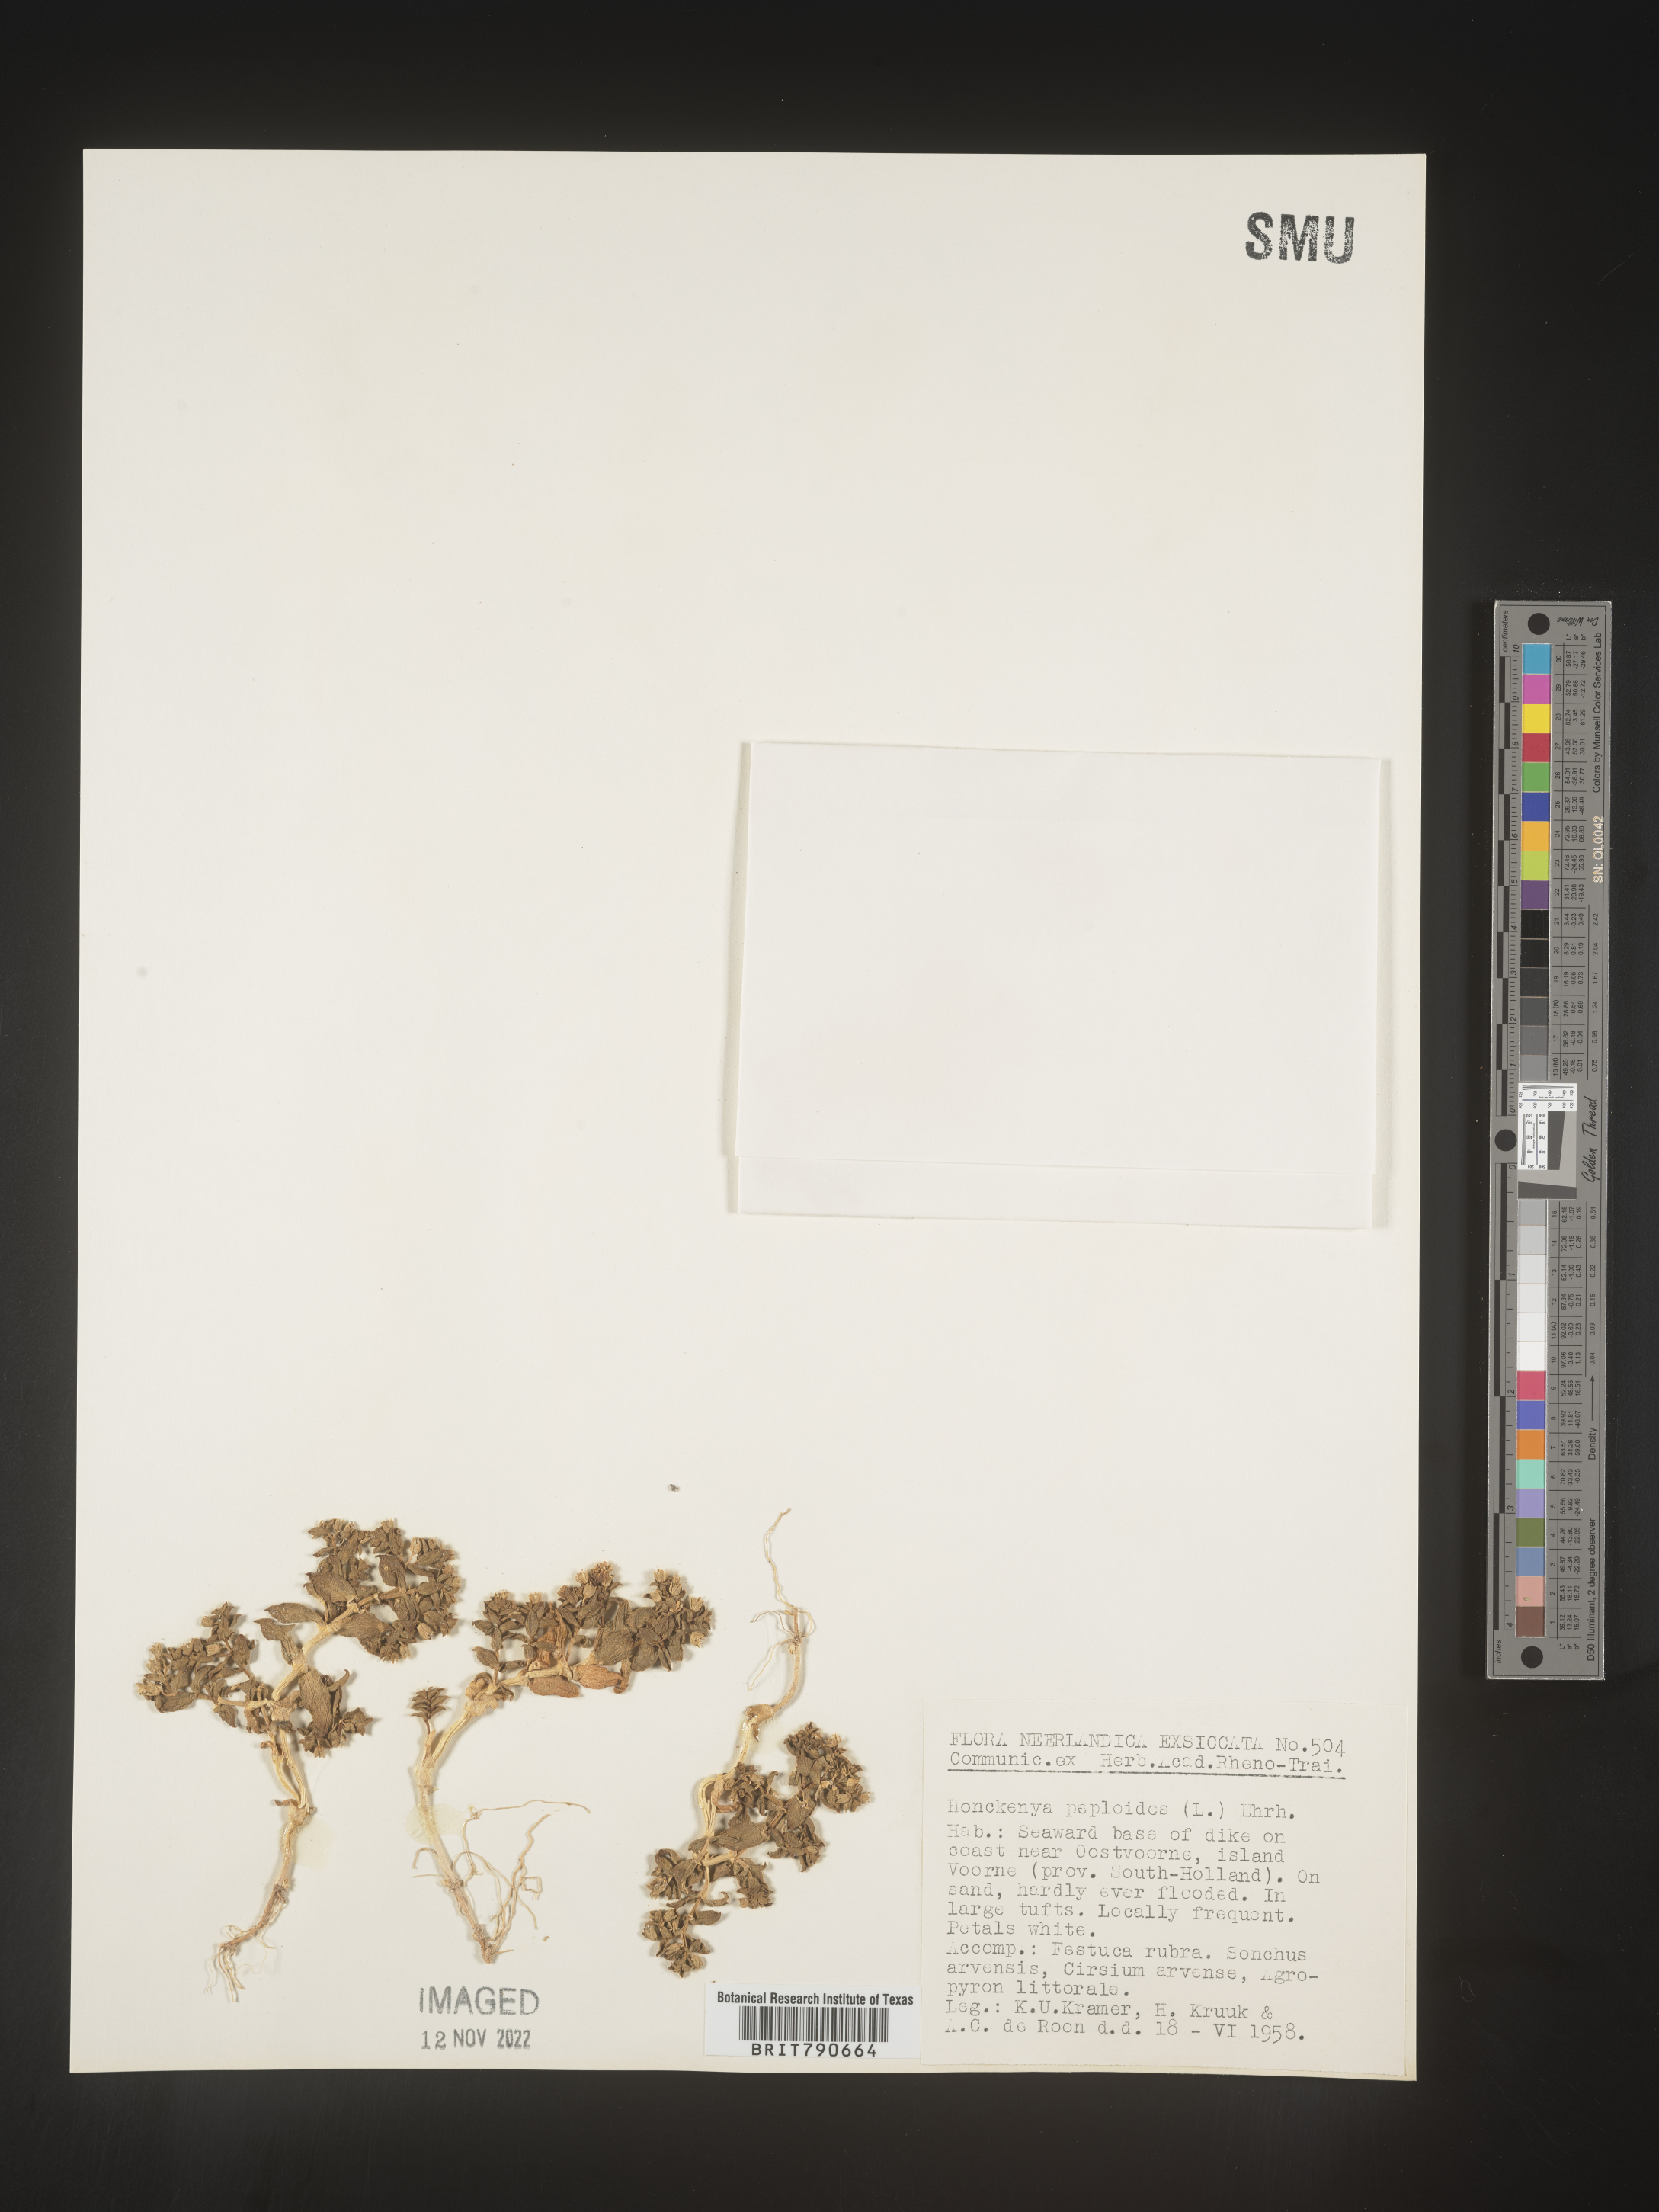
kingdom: Plantae
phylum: Tracheophyta
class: Magnoliopsida
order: Malvales
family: Malvaceae
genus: Clappertonia
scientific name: Clappertonia
